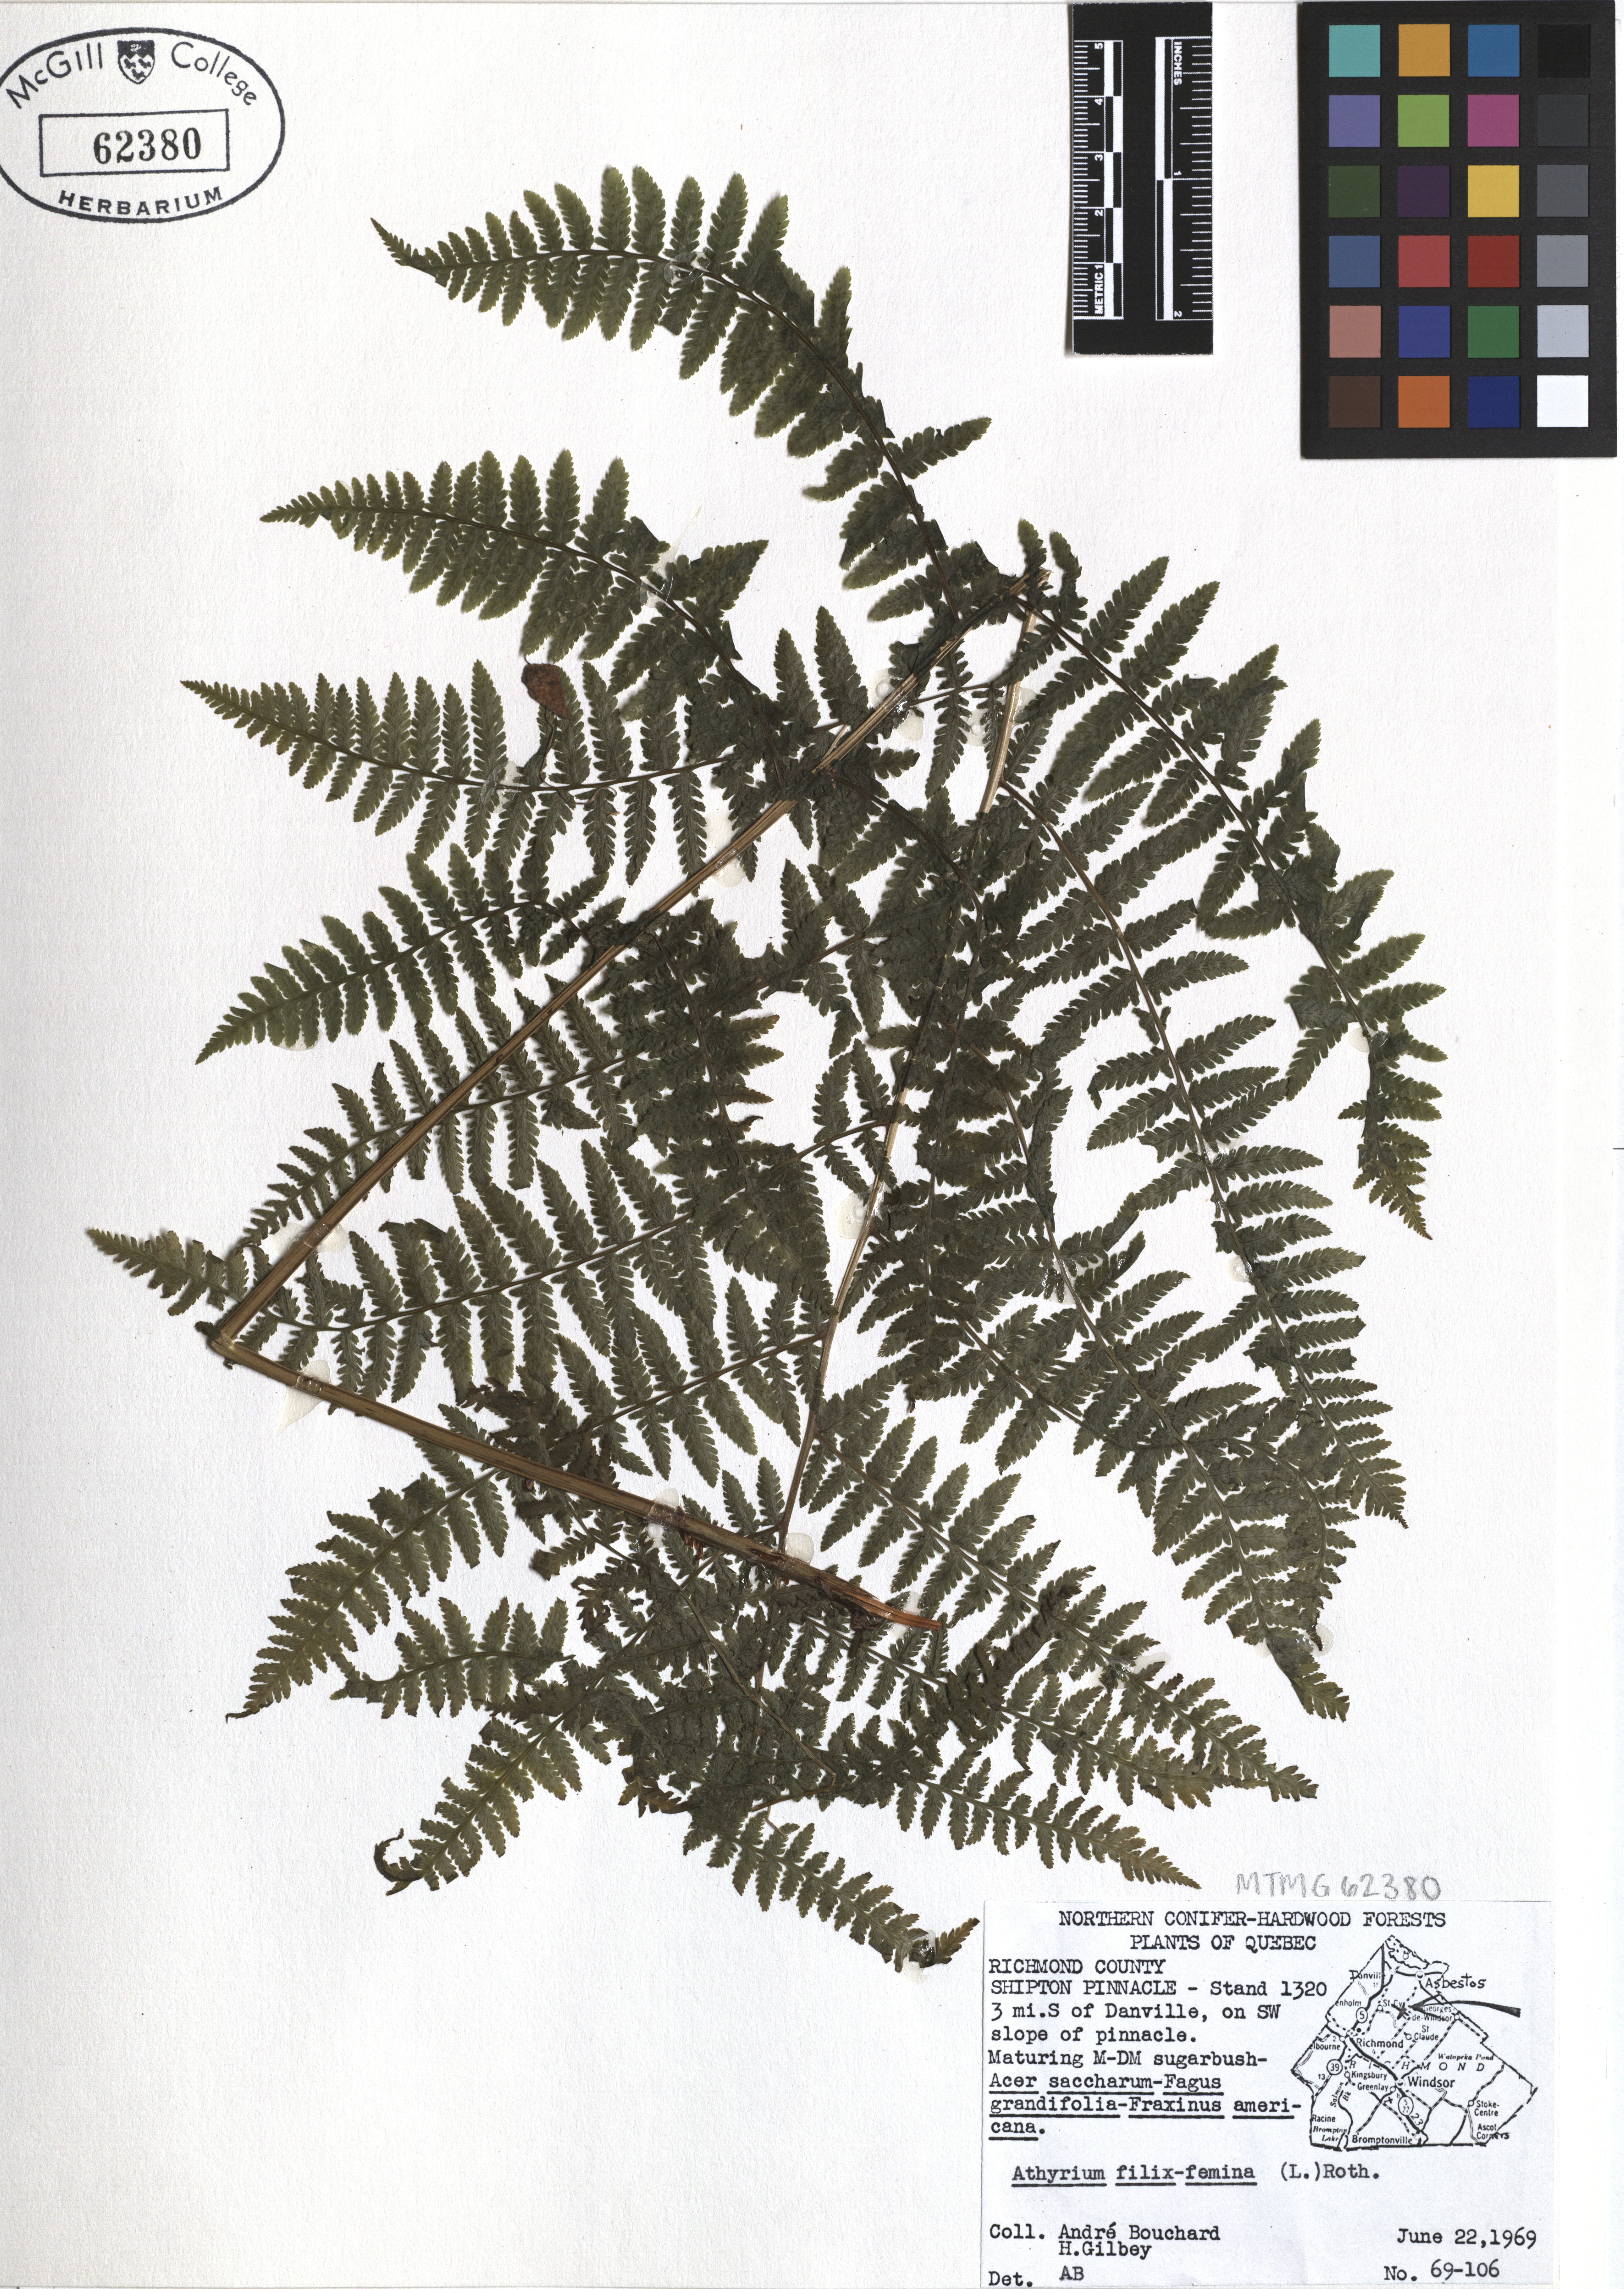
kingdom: Plantae
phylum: Tracheophyta
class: Polypodiopsida
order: Polypodiales
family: Athyriaceae
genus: Athyrium
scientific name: Athyrium filix-femina
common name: Lady fern
